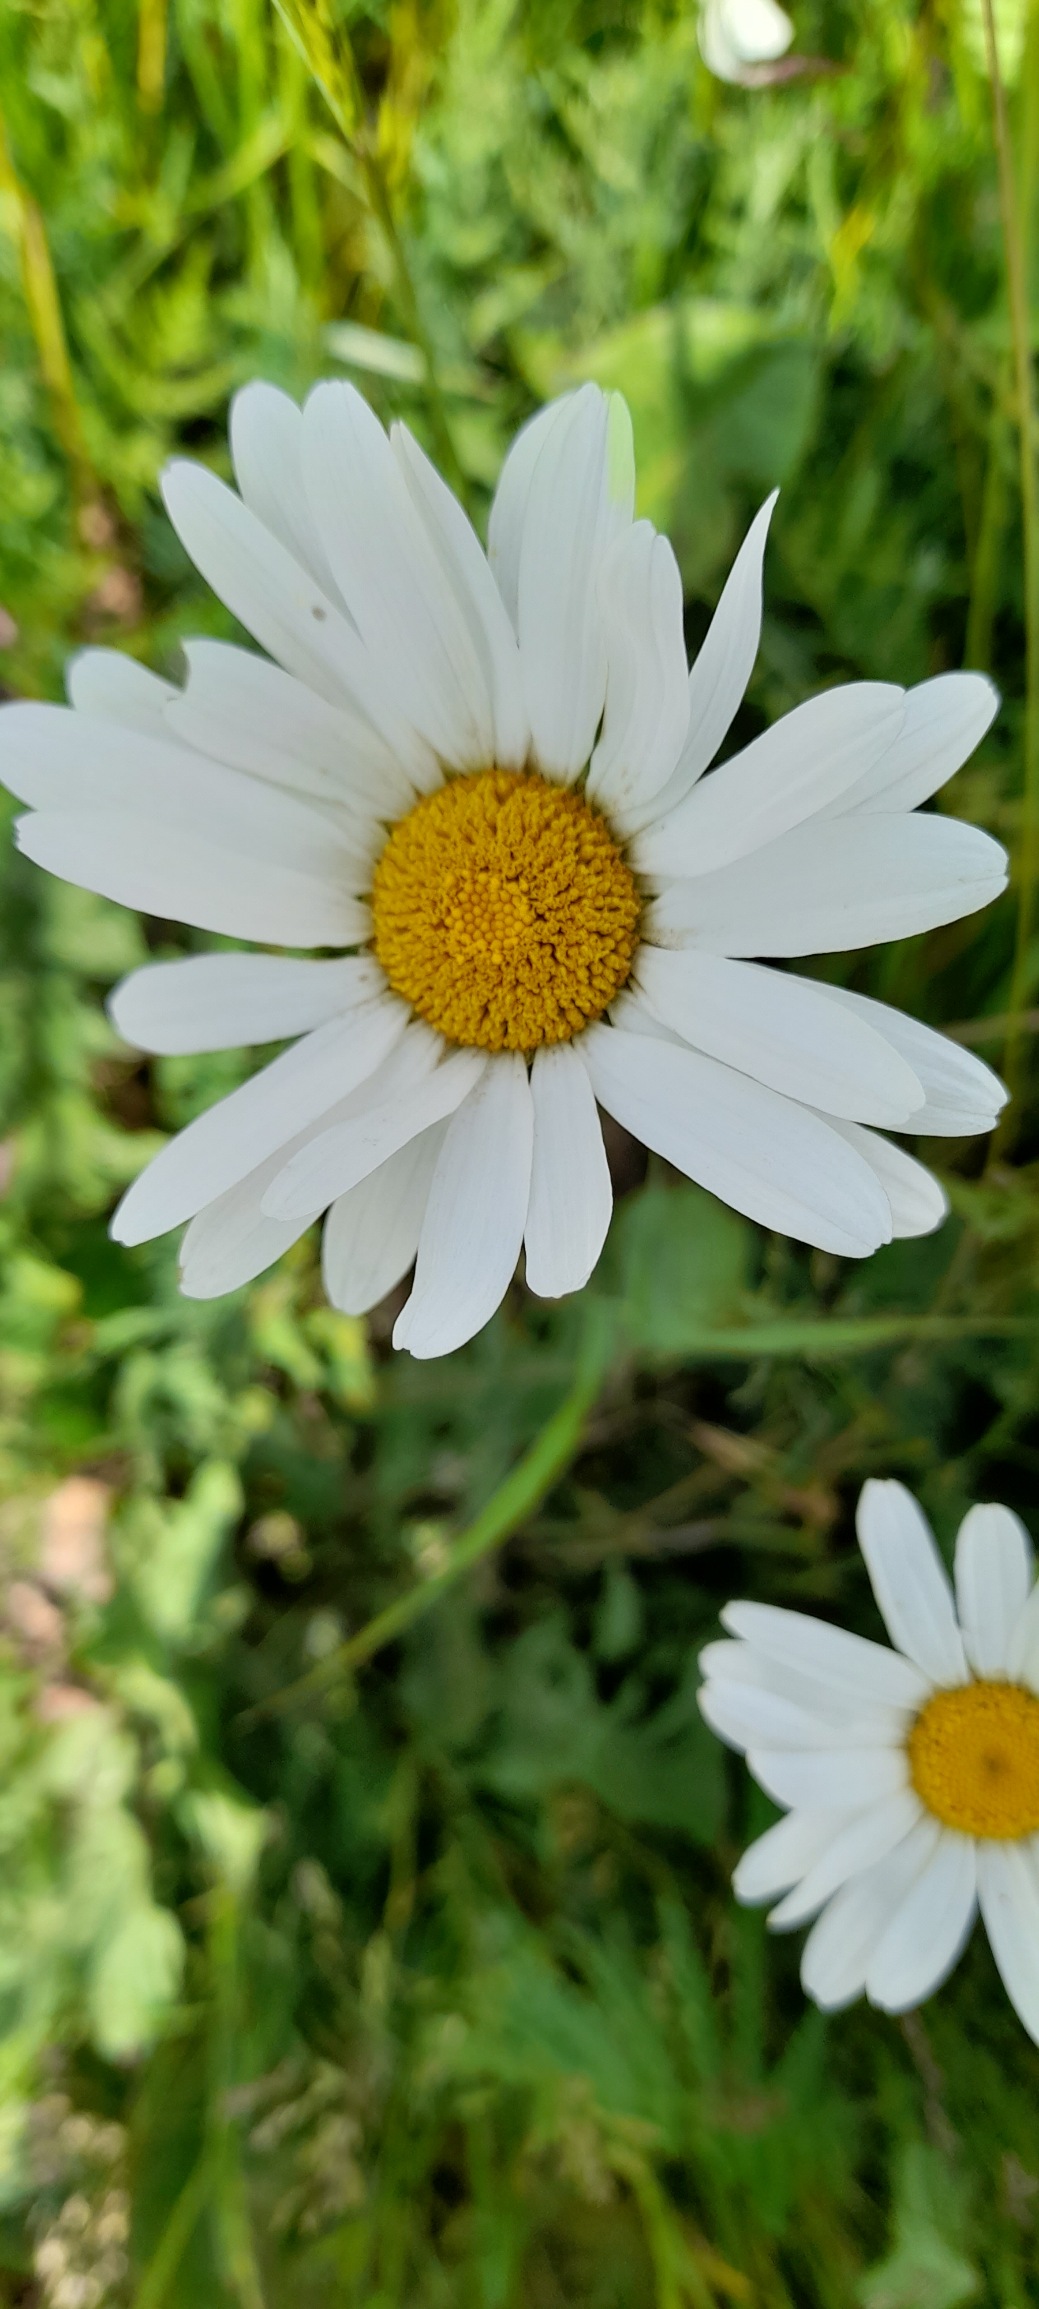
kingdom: Plantae
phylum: Tracheophyta
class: Magnoliopsida
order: Asterales
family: Asteraceae
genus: Leucanthemum
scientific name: Leucanthemum vulgare
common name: Hvid okseøje
